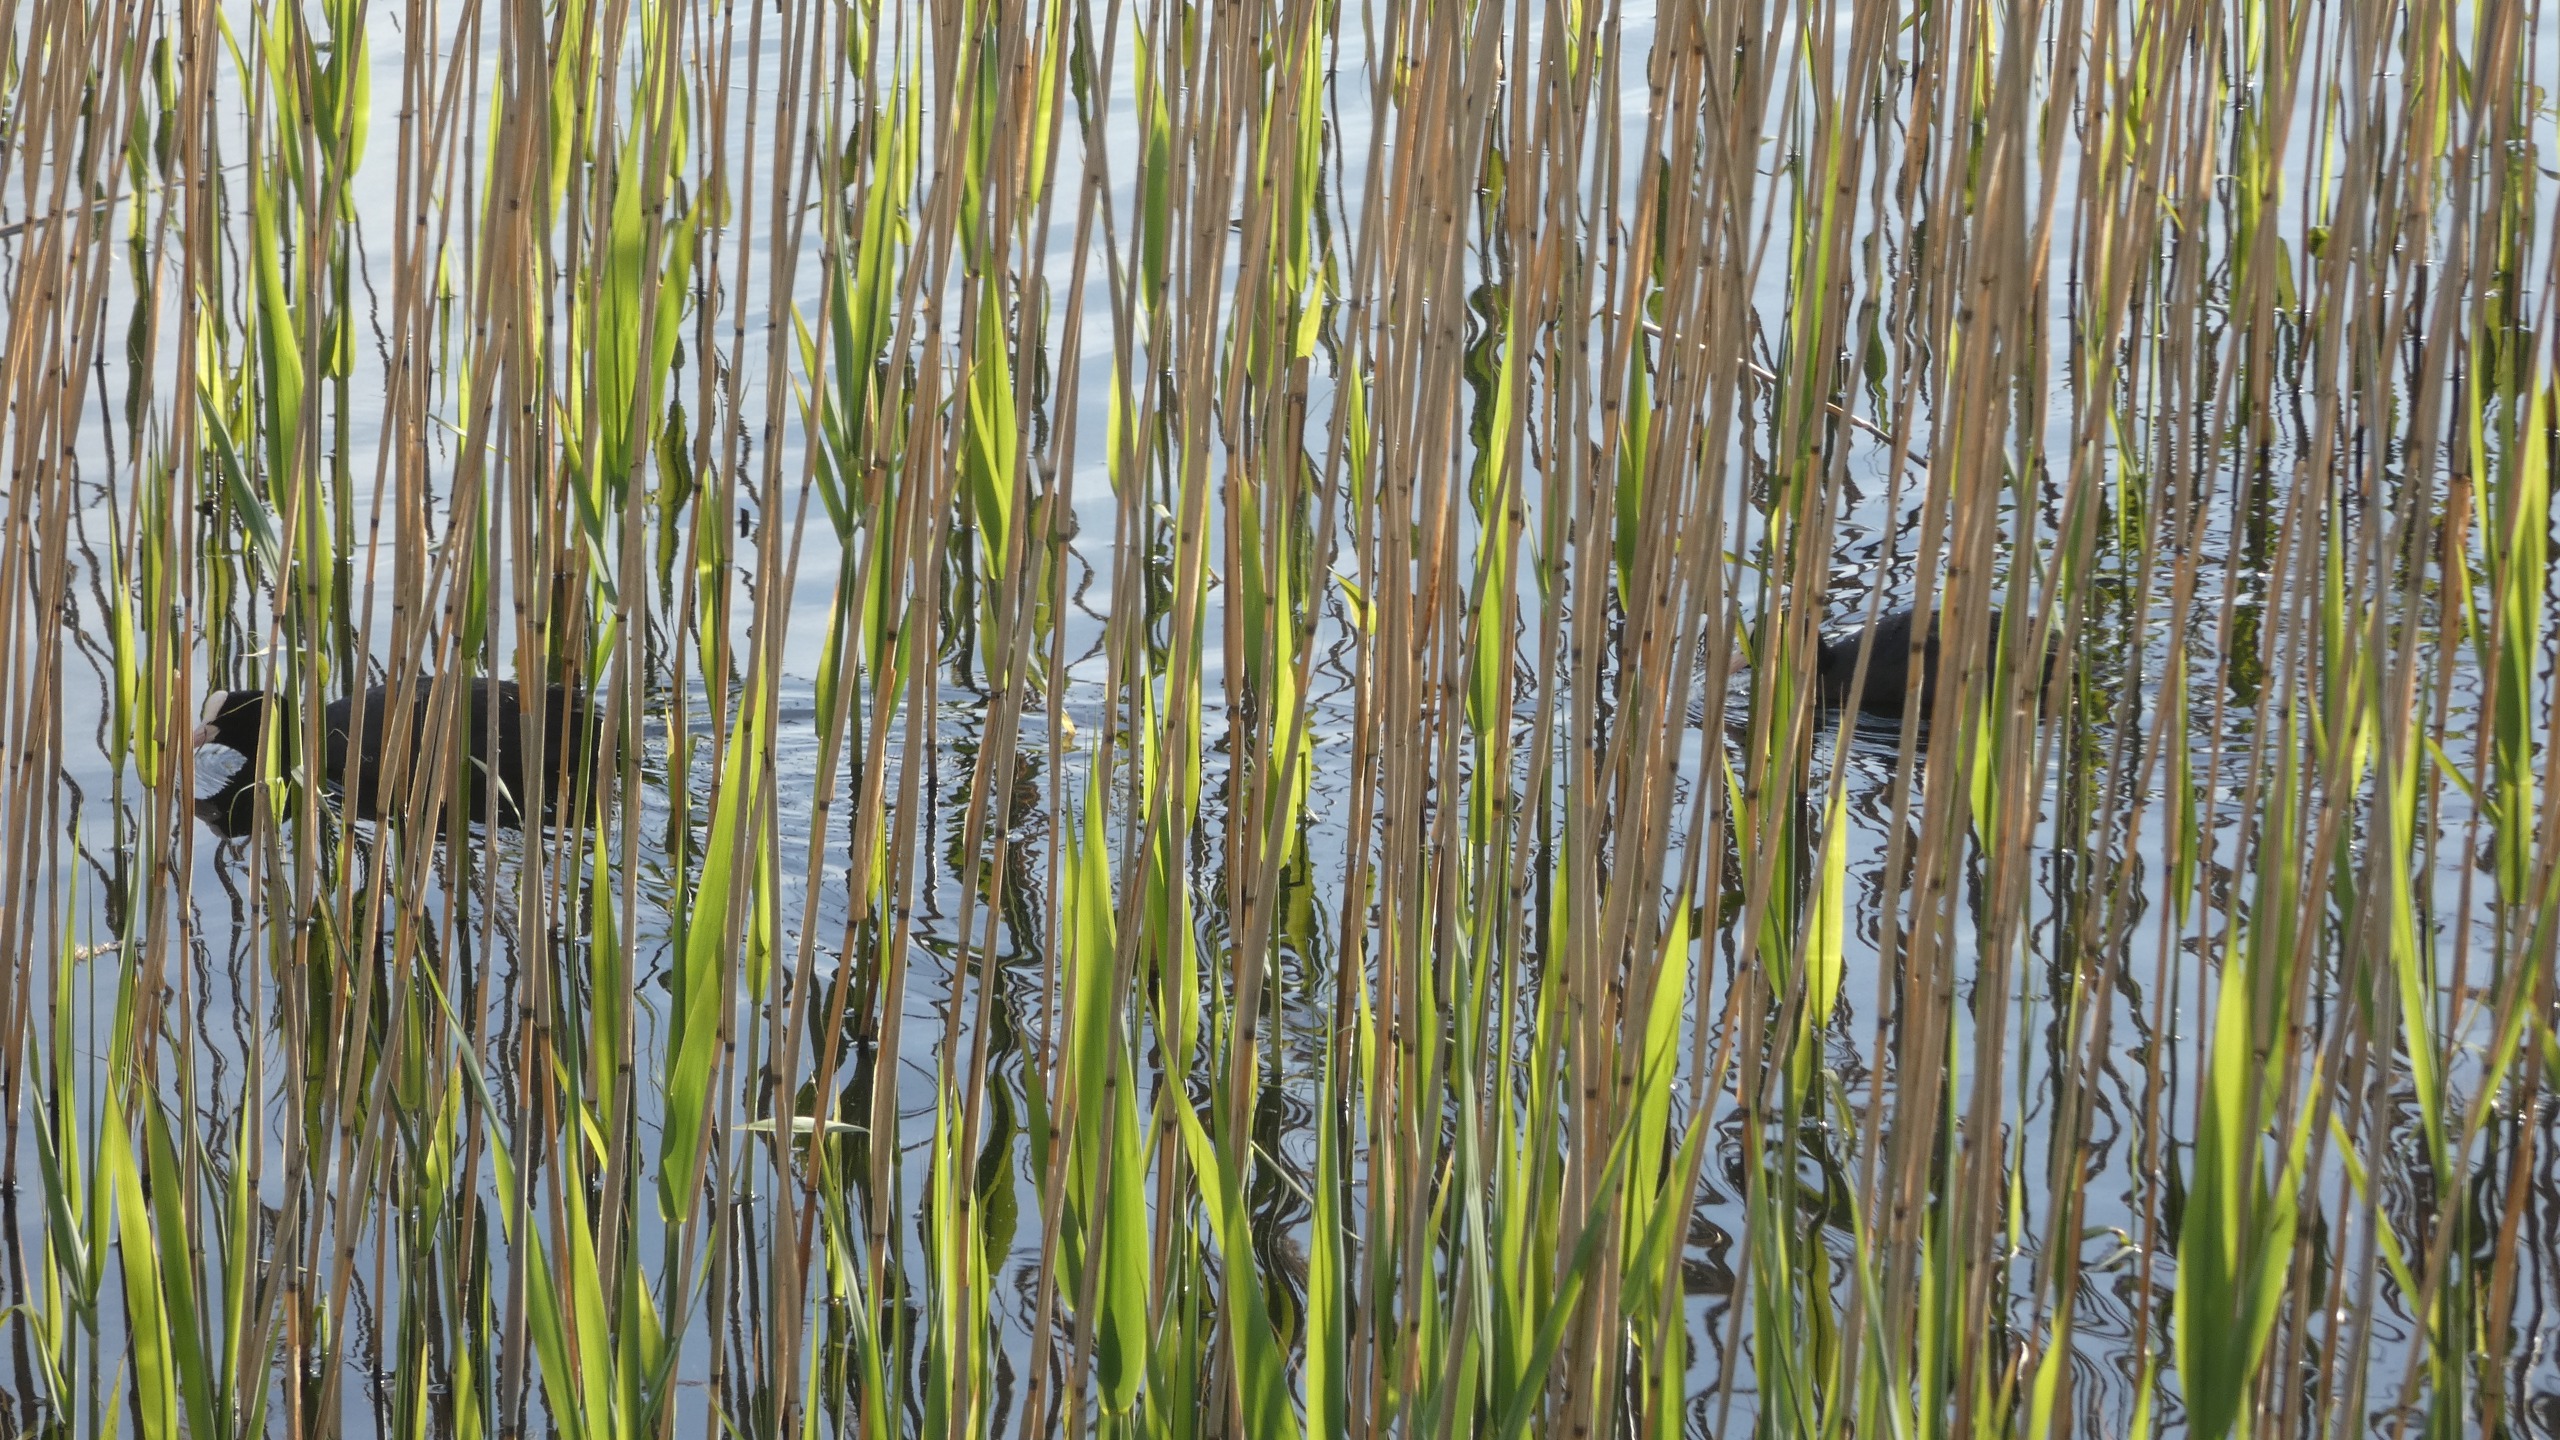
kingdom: Animalia
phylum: Chordata
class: Aves
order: Gruiformes
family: Rallidae
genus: Fulica
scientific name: Fulica atra
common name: Blishøne
